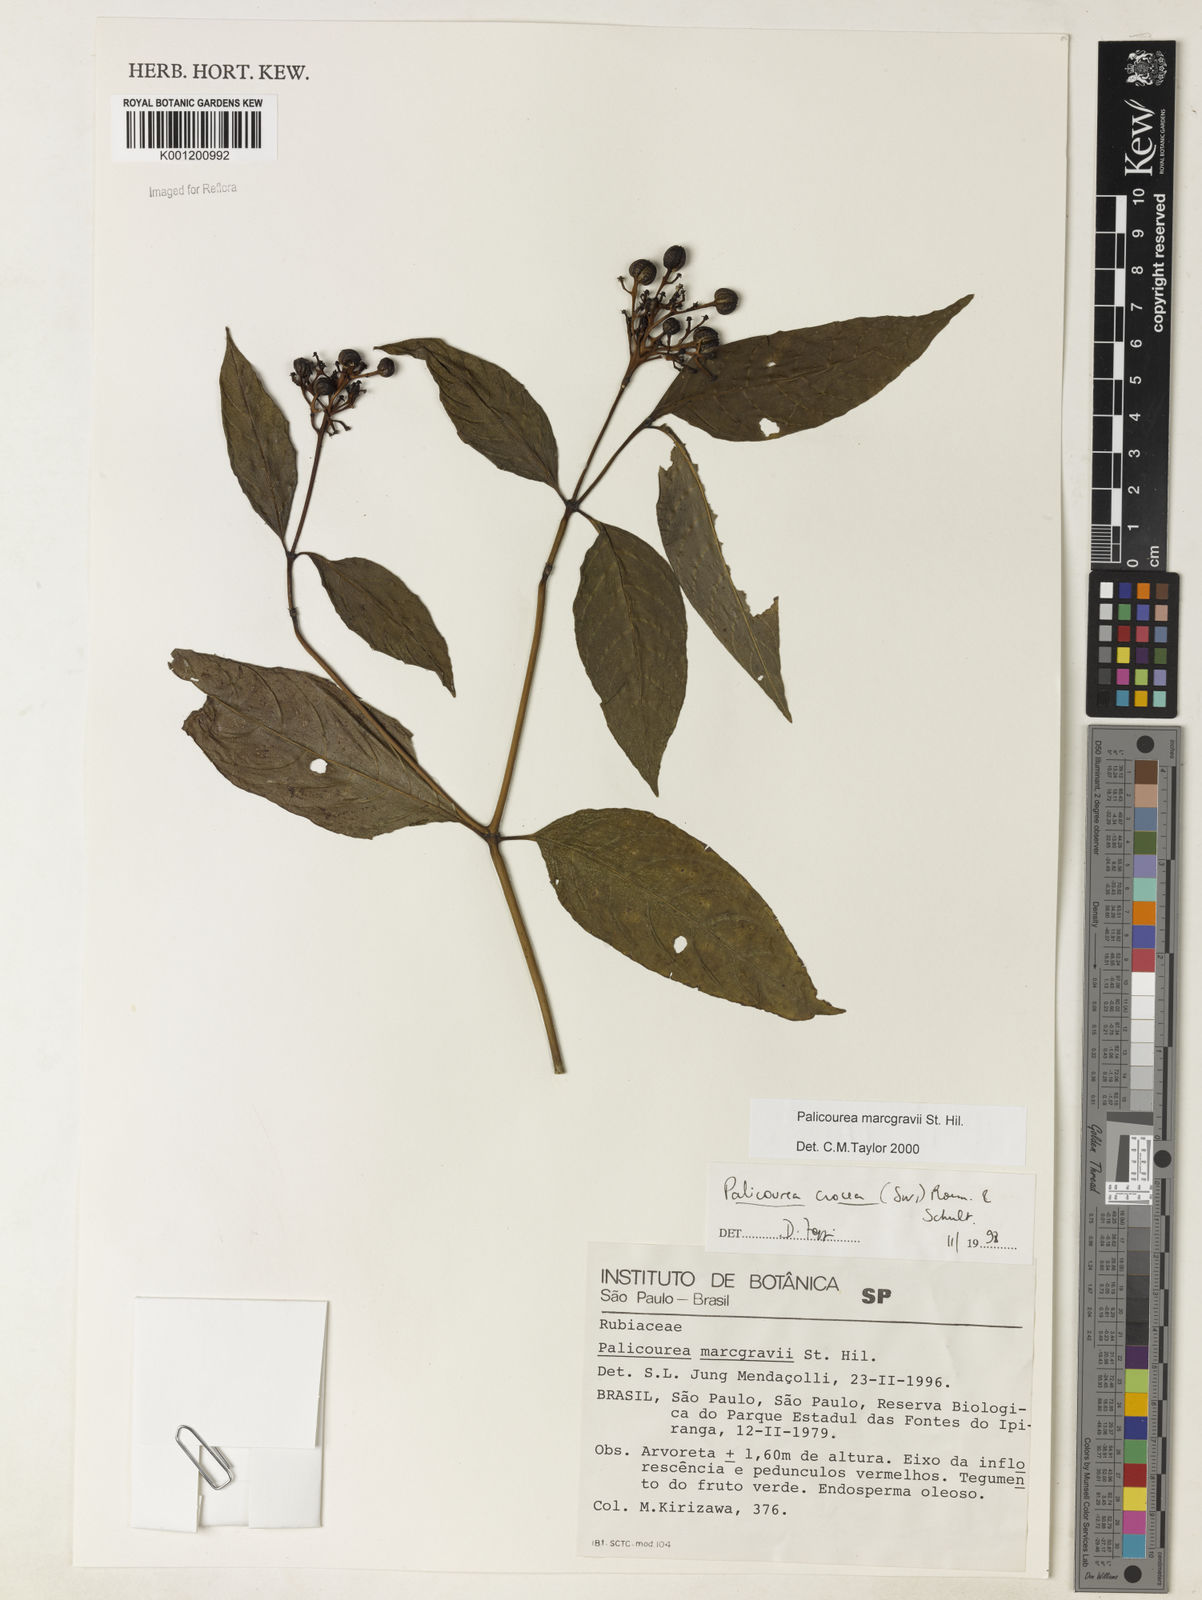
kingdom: Plantae
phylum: Tracheophyta
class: Magnoliopsida
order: Gentianales
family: Rubiaceae
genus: Palicourea
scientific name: Palicourea marcgravii
